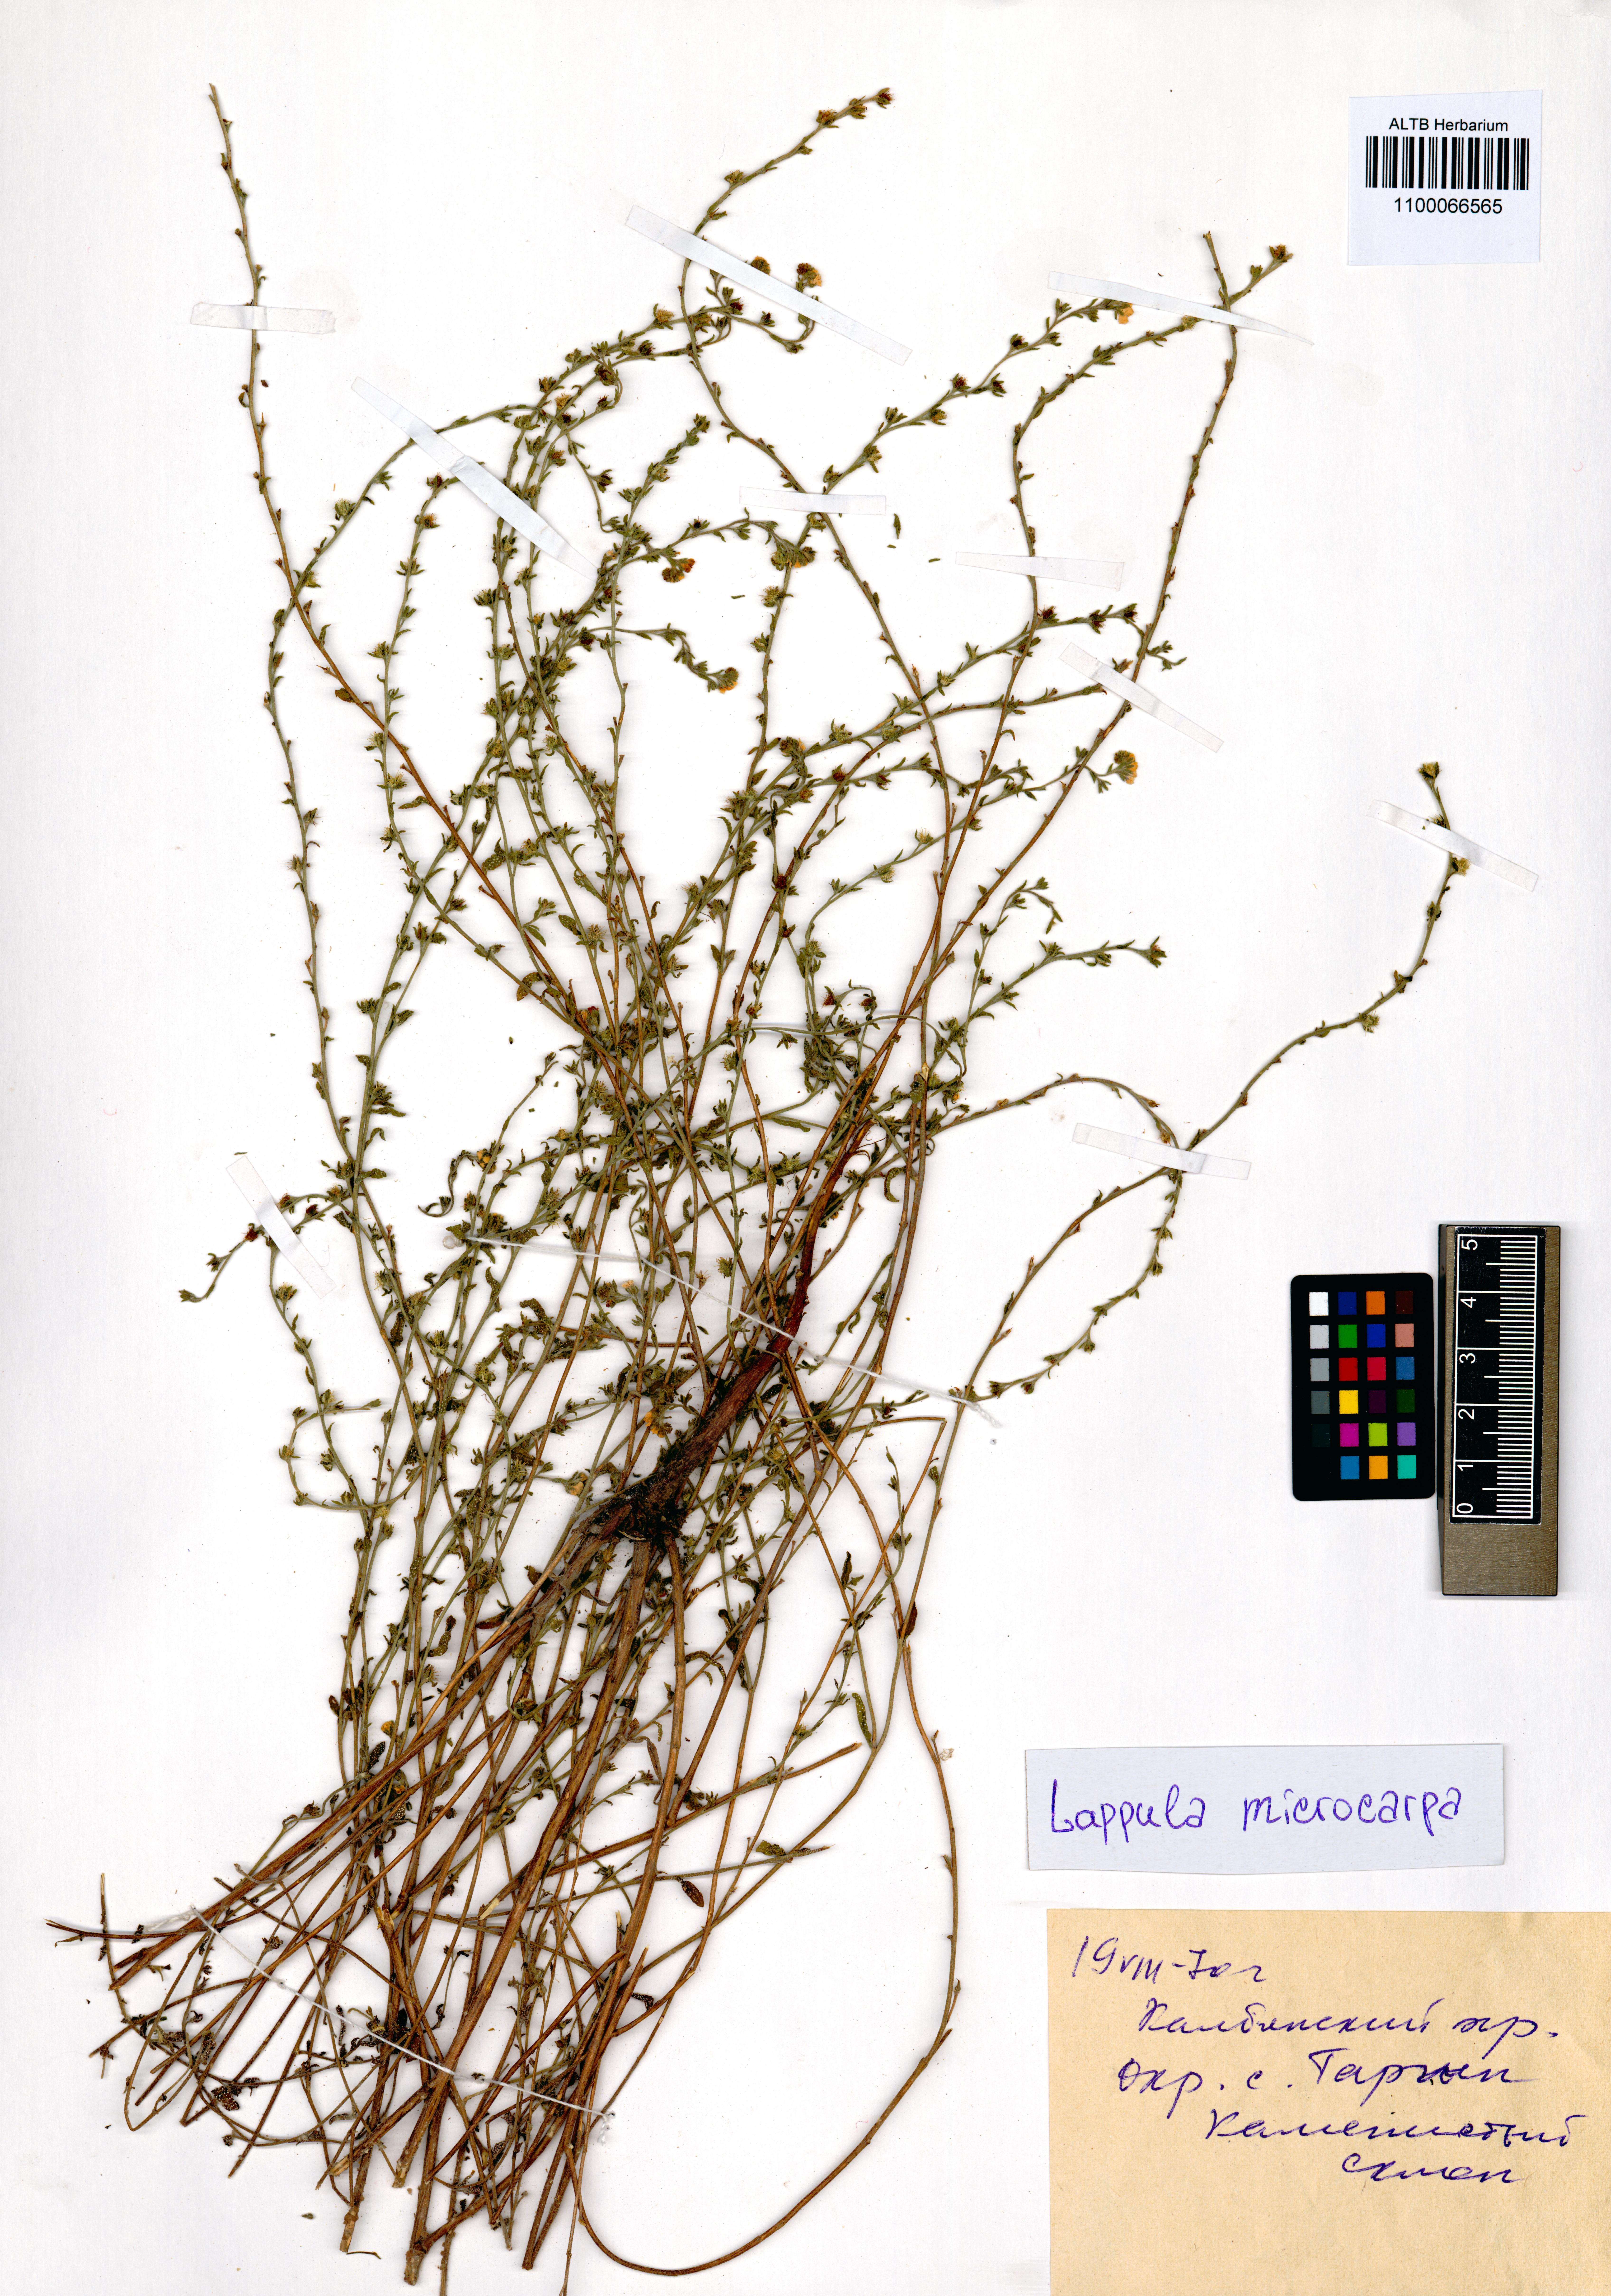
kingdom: Plantae
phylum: Tracheophyta
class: Magnoliopsida
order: Boraginales
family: Boraginaceae
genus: Lappula
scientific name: Lappula microcarpa
